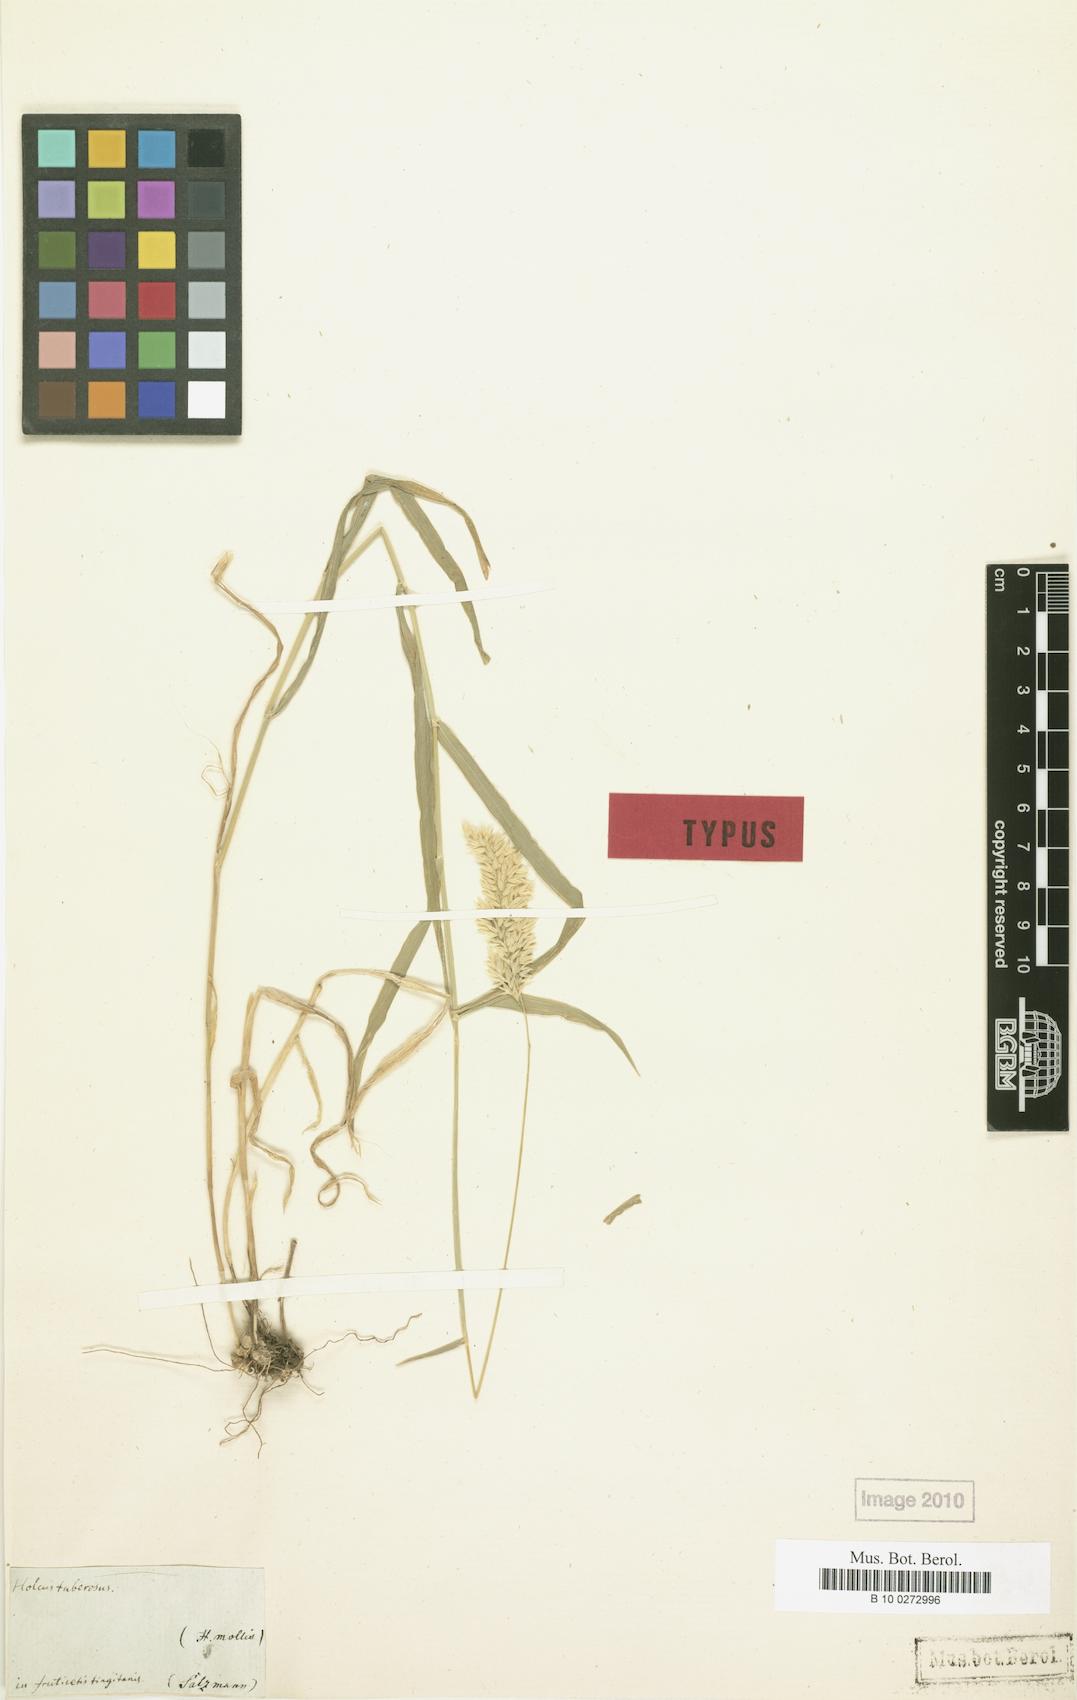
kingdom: Plantae
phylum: Tracheophyta
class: Liliopsida
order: Poales
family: Poaceae
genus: Holcus
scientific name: Holcus lanatus
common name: Yorkshire-fog
